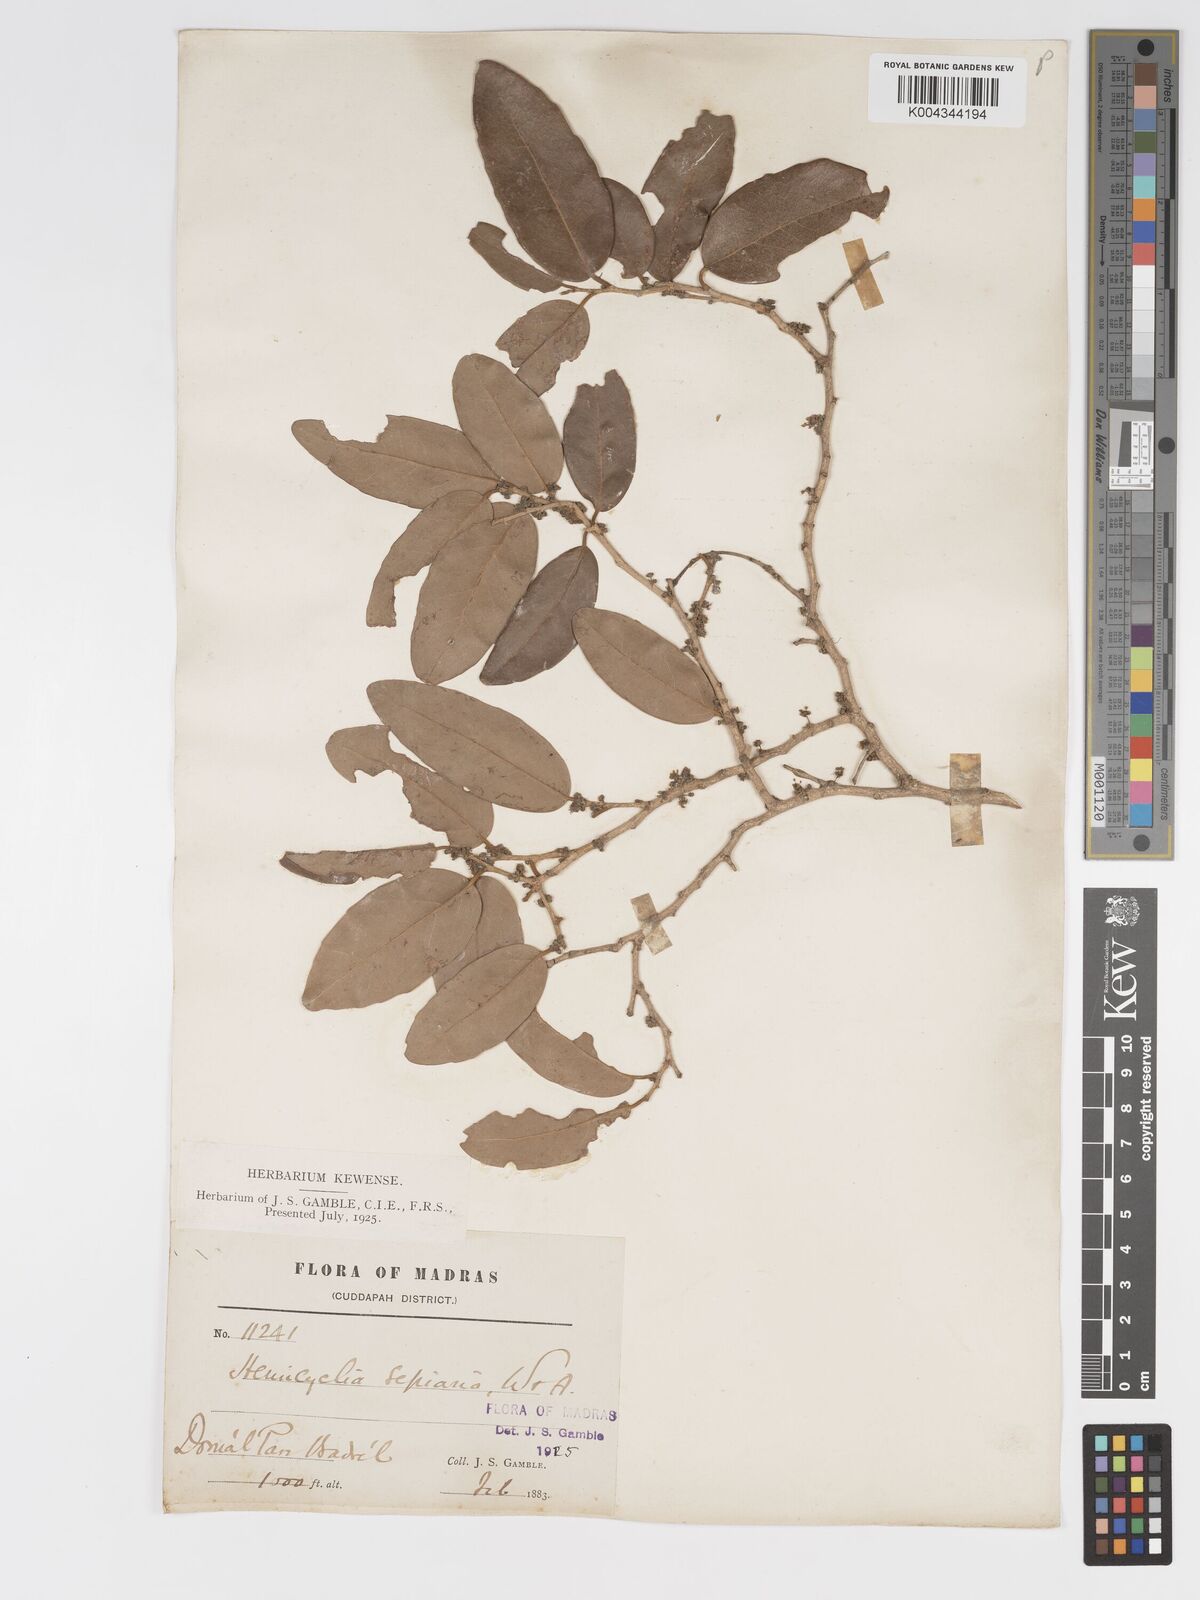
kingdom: Plantae
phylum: Tracheophyta
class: Magnoliopsida
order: Malpighiales
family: Putranjivaceae
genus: Drypetes
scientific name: Drypetes sepiaria
